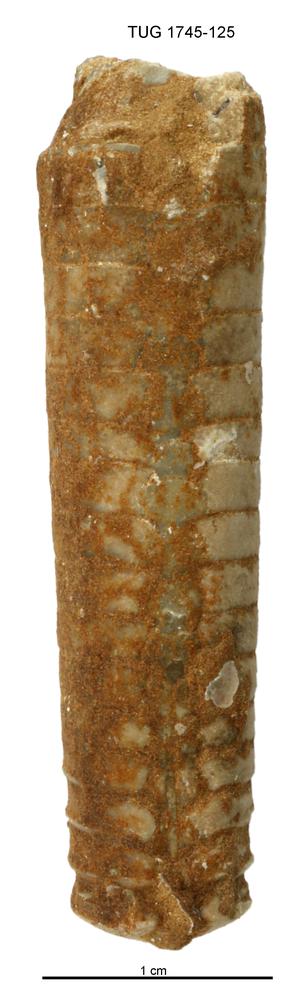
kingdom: Animalia
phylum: Mollusca
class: Cephalopoda
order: Orthocerida
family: Orthoceratidae
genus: Orthoceras
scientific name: Orthoceras
